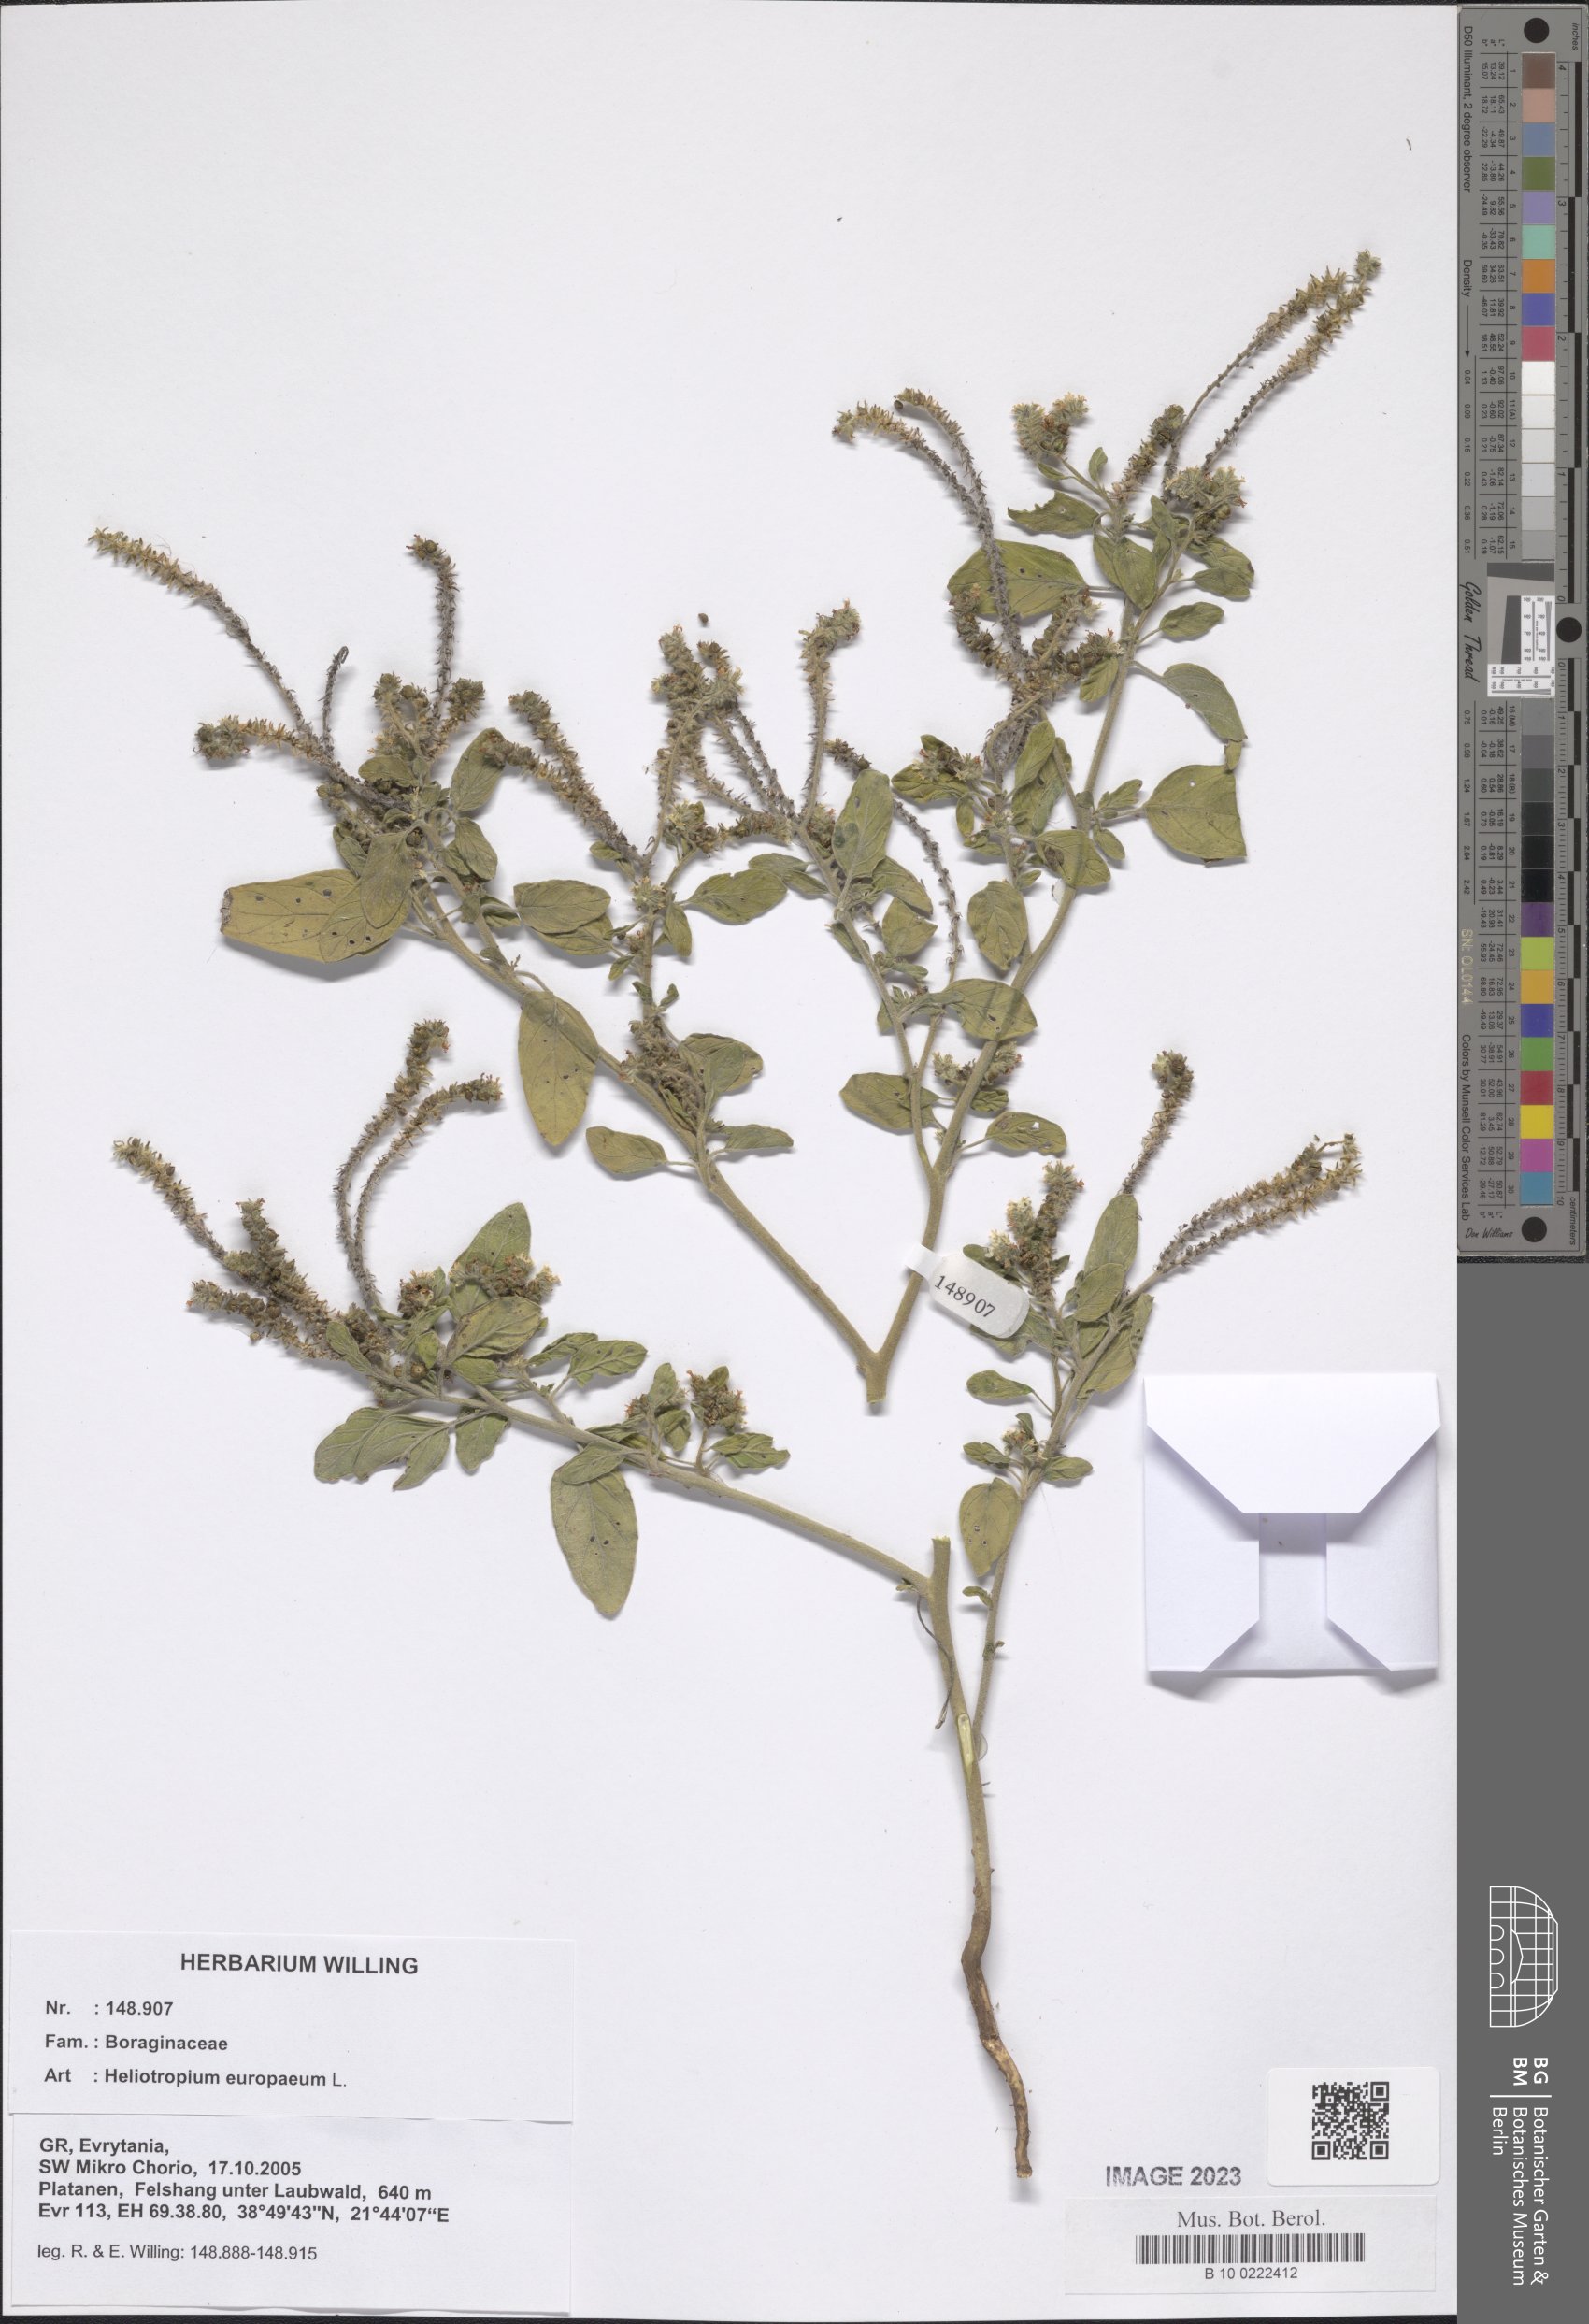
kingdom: Plantae
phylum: Tracheophyta
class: Magnoliopsida
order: Boraginales
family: Heliotropiaceae
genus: Heliotropium
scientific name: Heliotropium europaeum
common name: European heliotrope
